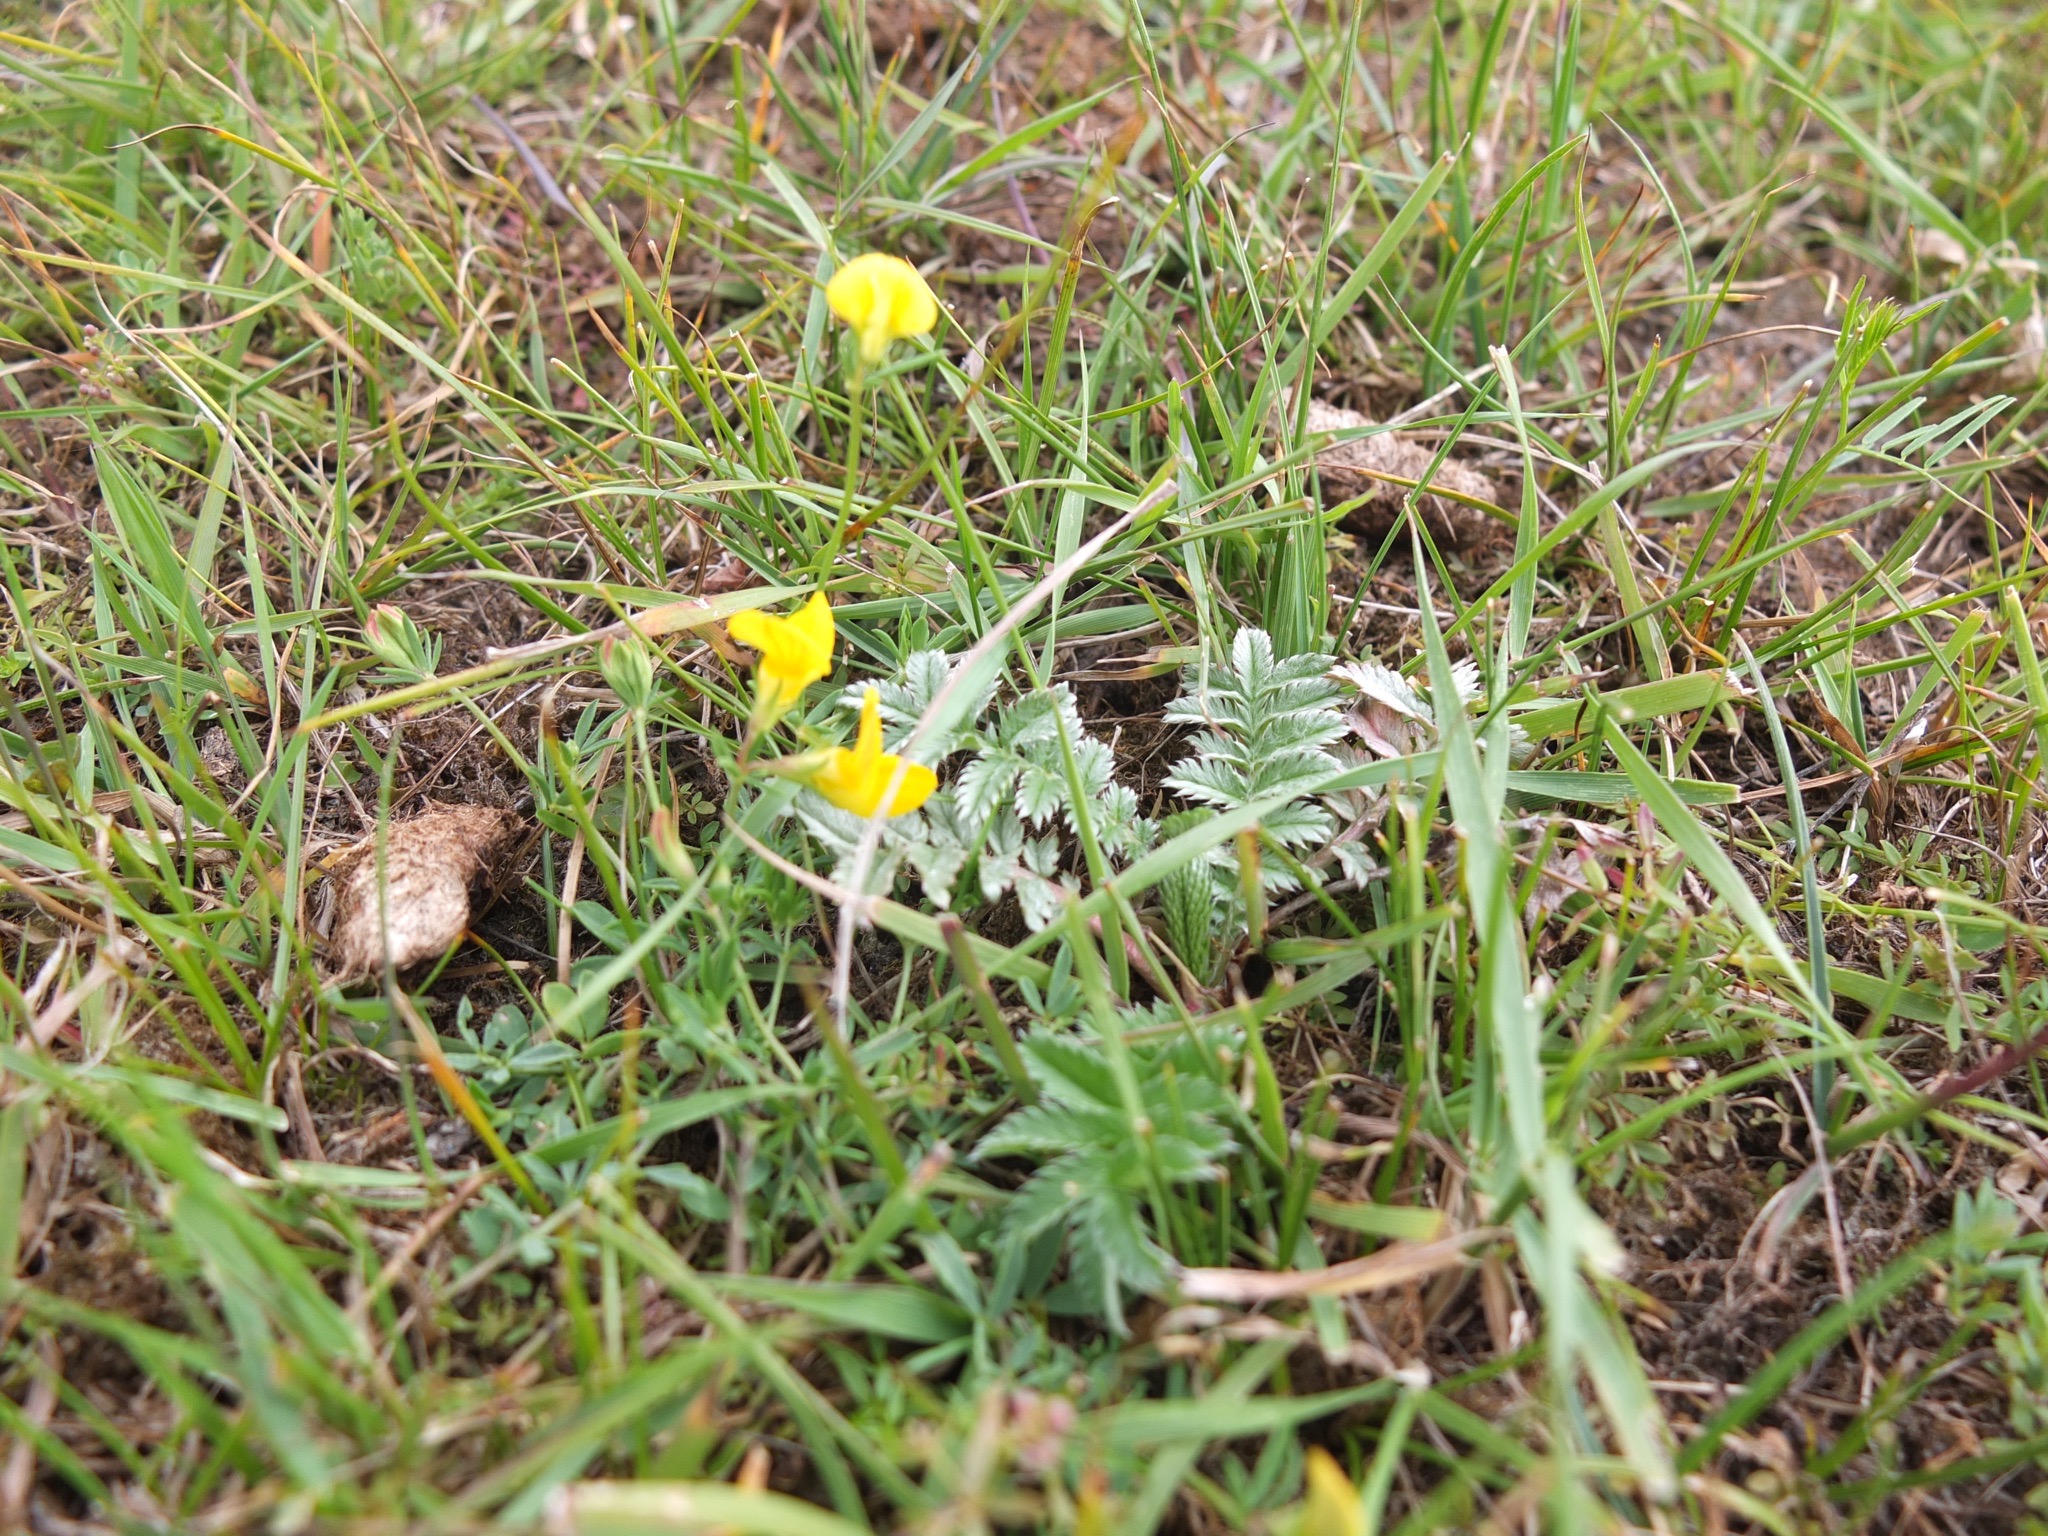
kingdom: Plantae
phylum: Tracheophyta
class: Magnoliopsida
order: Rosales
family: Rosaceae
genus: Argentina
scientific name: Argentina anserina
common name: Gåsepotentil
